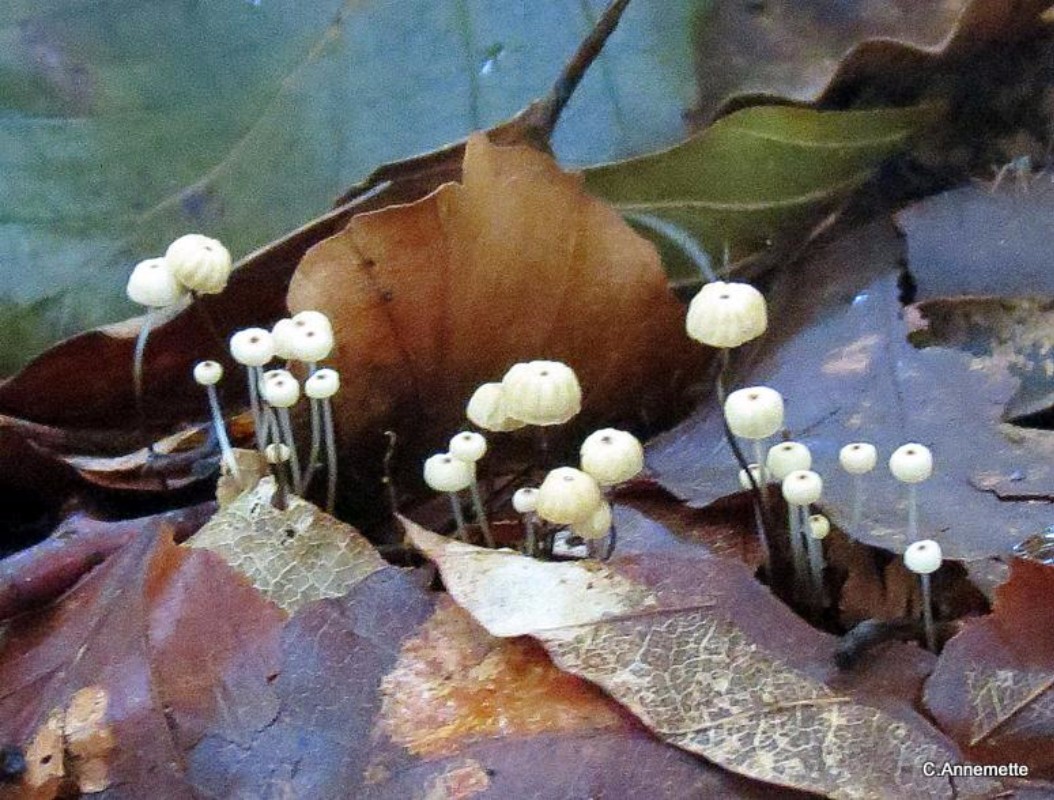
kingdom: Fungi
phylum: Basidiomycota
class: Agaricomycetes
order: Agaricales
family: Marasmiaceae
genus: Marasmius
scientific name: Marasmius bulliardii
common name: furet bruskhat
